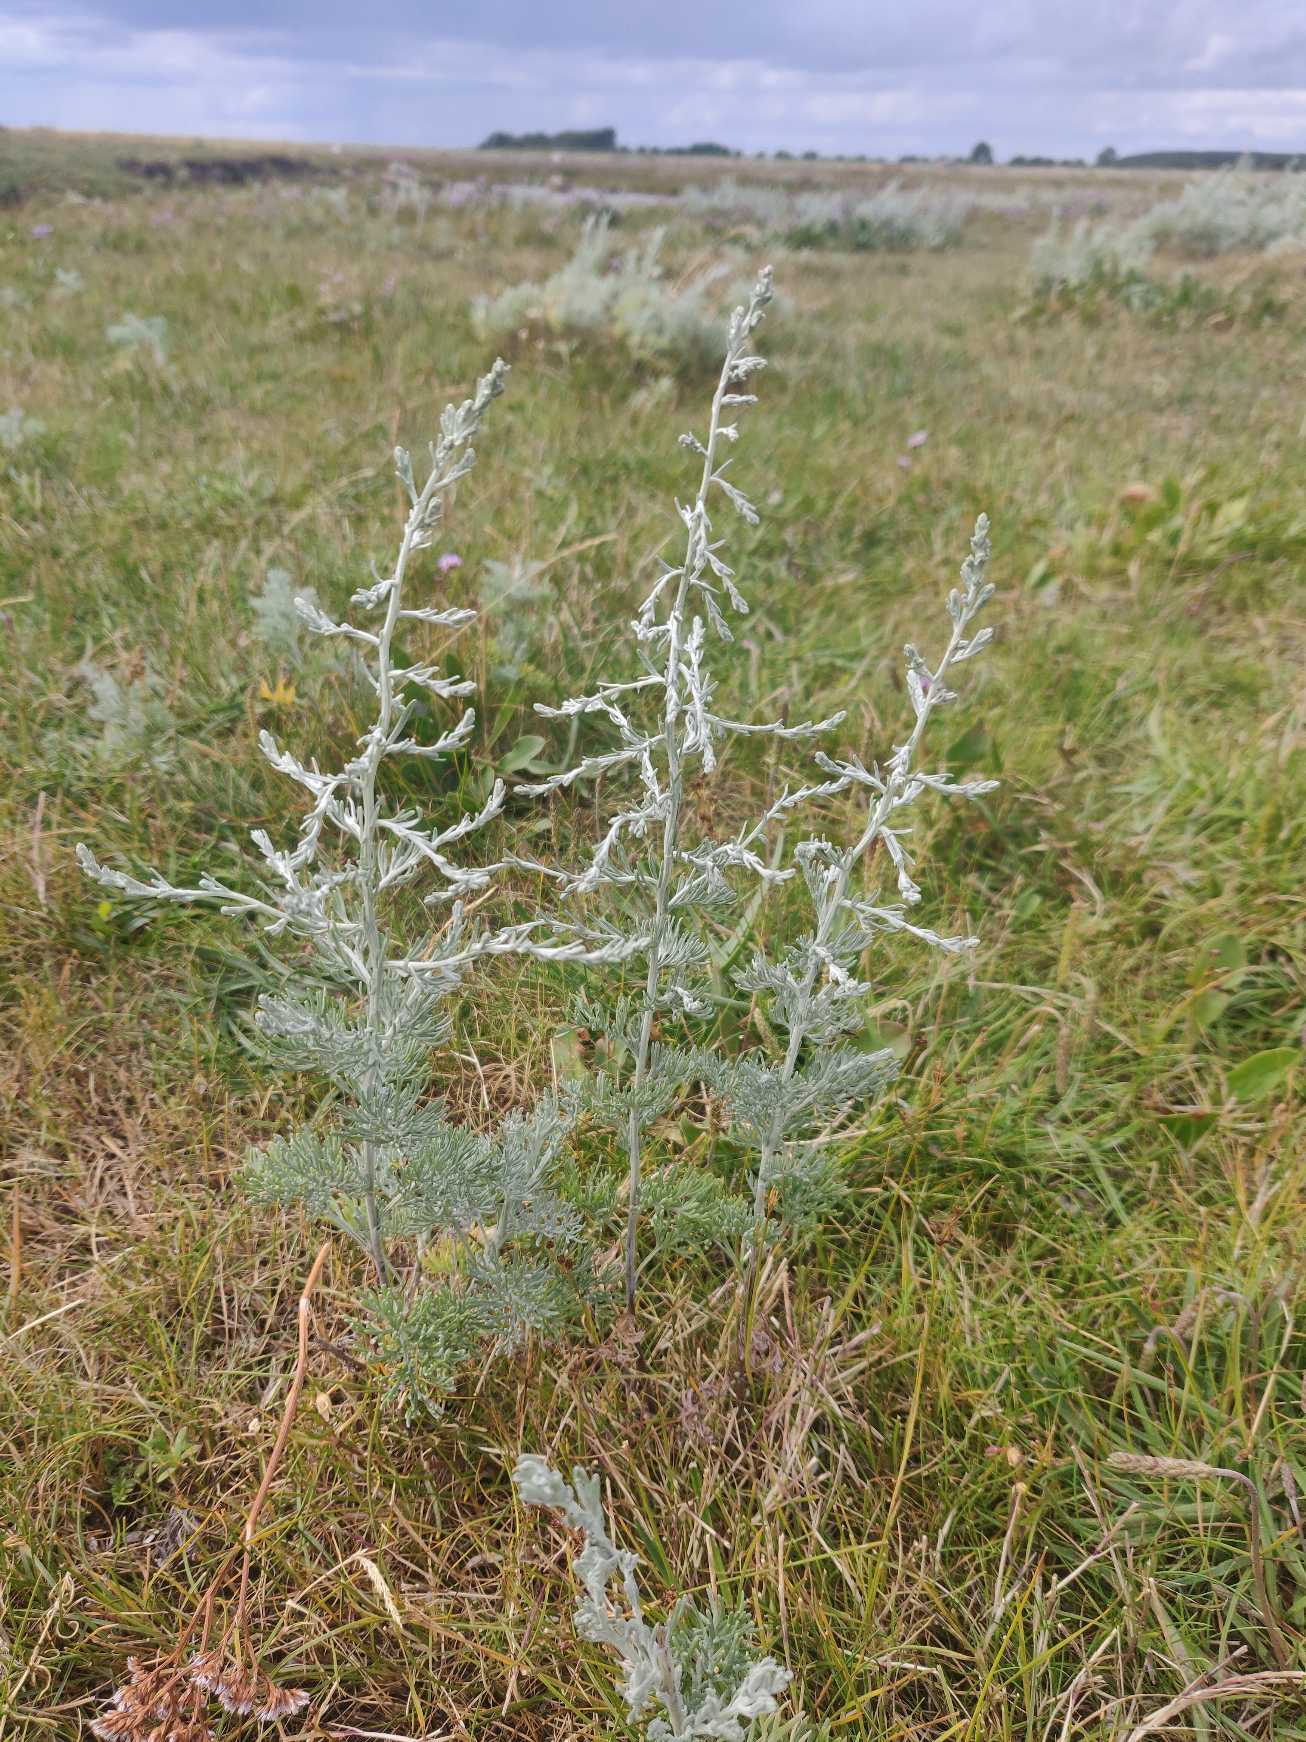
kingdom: Plantae
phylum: Tracheophyta
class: Magnoliopsida
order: Asterales
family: Asteraceae
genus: Artemisia
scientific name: Artemisia maritima
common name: Strandmalurt
